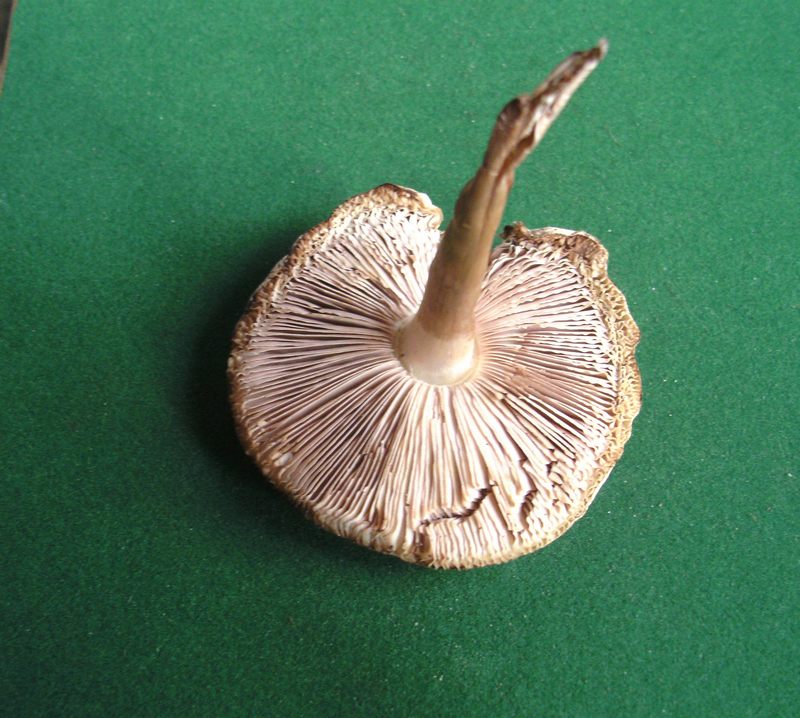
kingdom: Fungi
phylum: Basidiomycota
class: Agaricomycetes
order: Agaricales
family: Agaricaceae
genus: Leucoagaricus
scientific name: Leucoagaricus leucothites
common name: rosabladet silkehat
